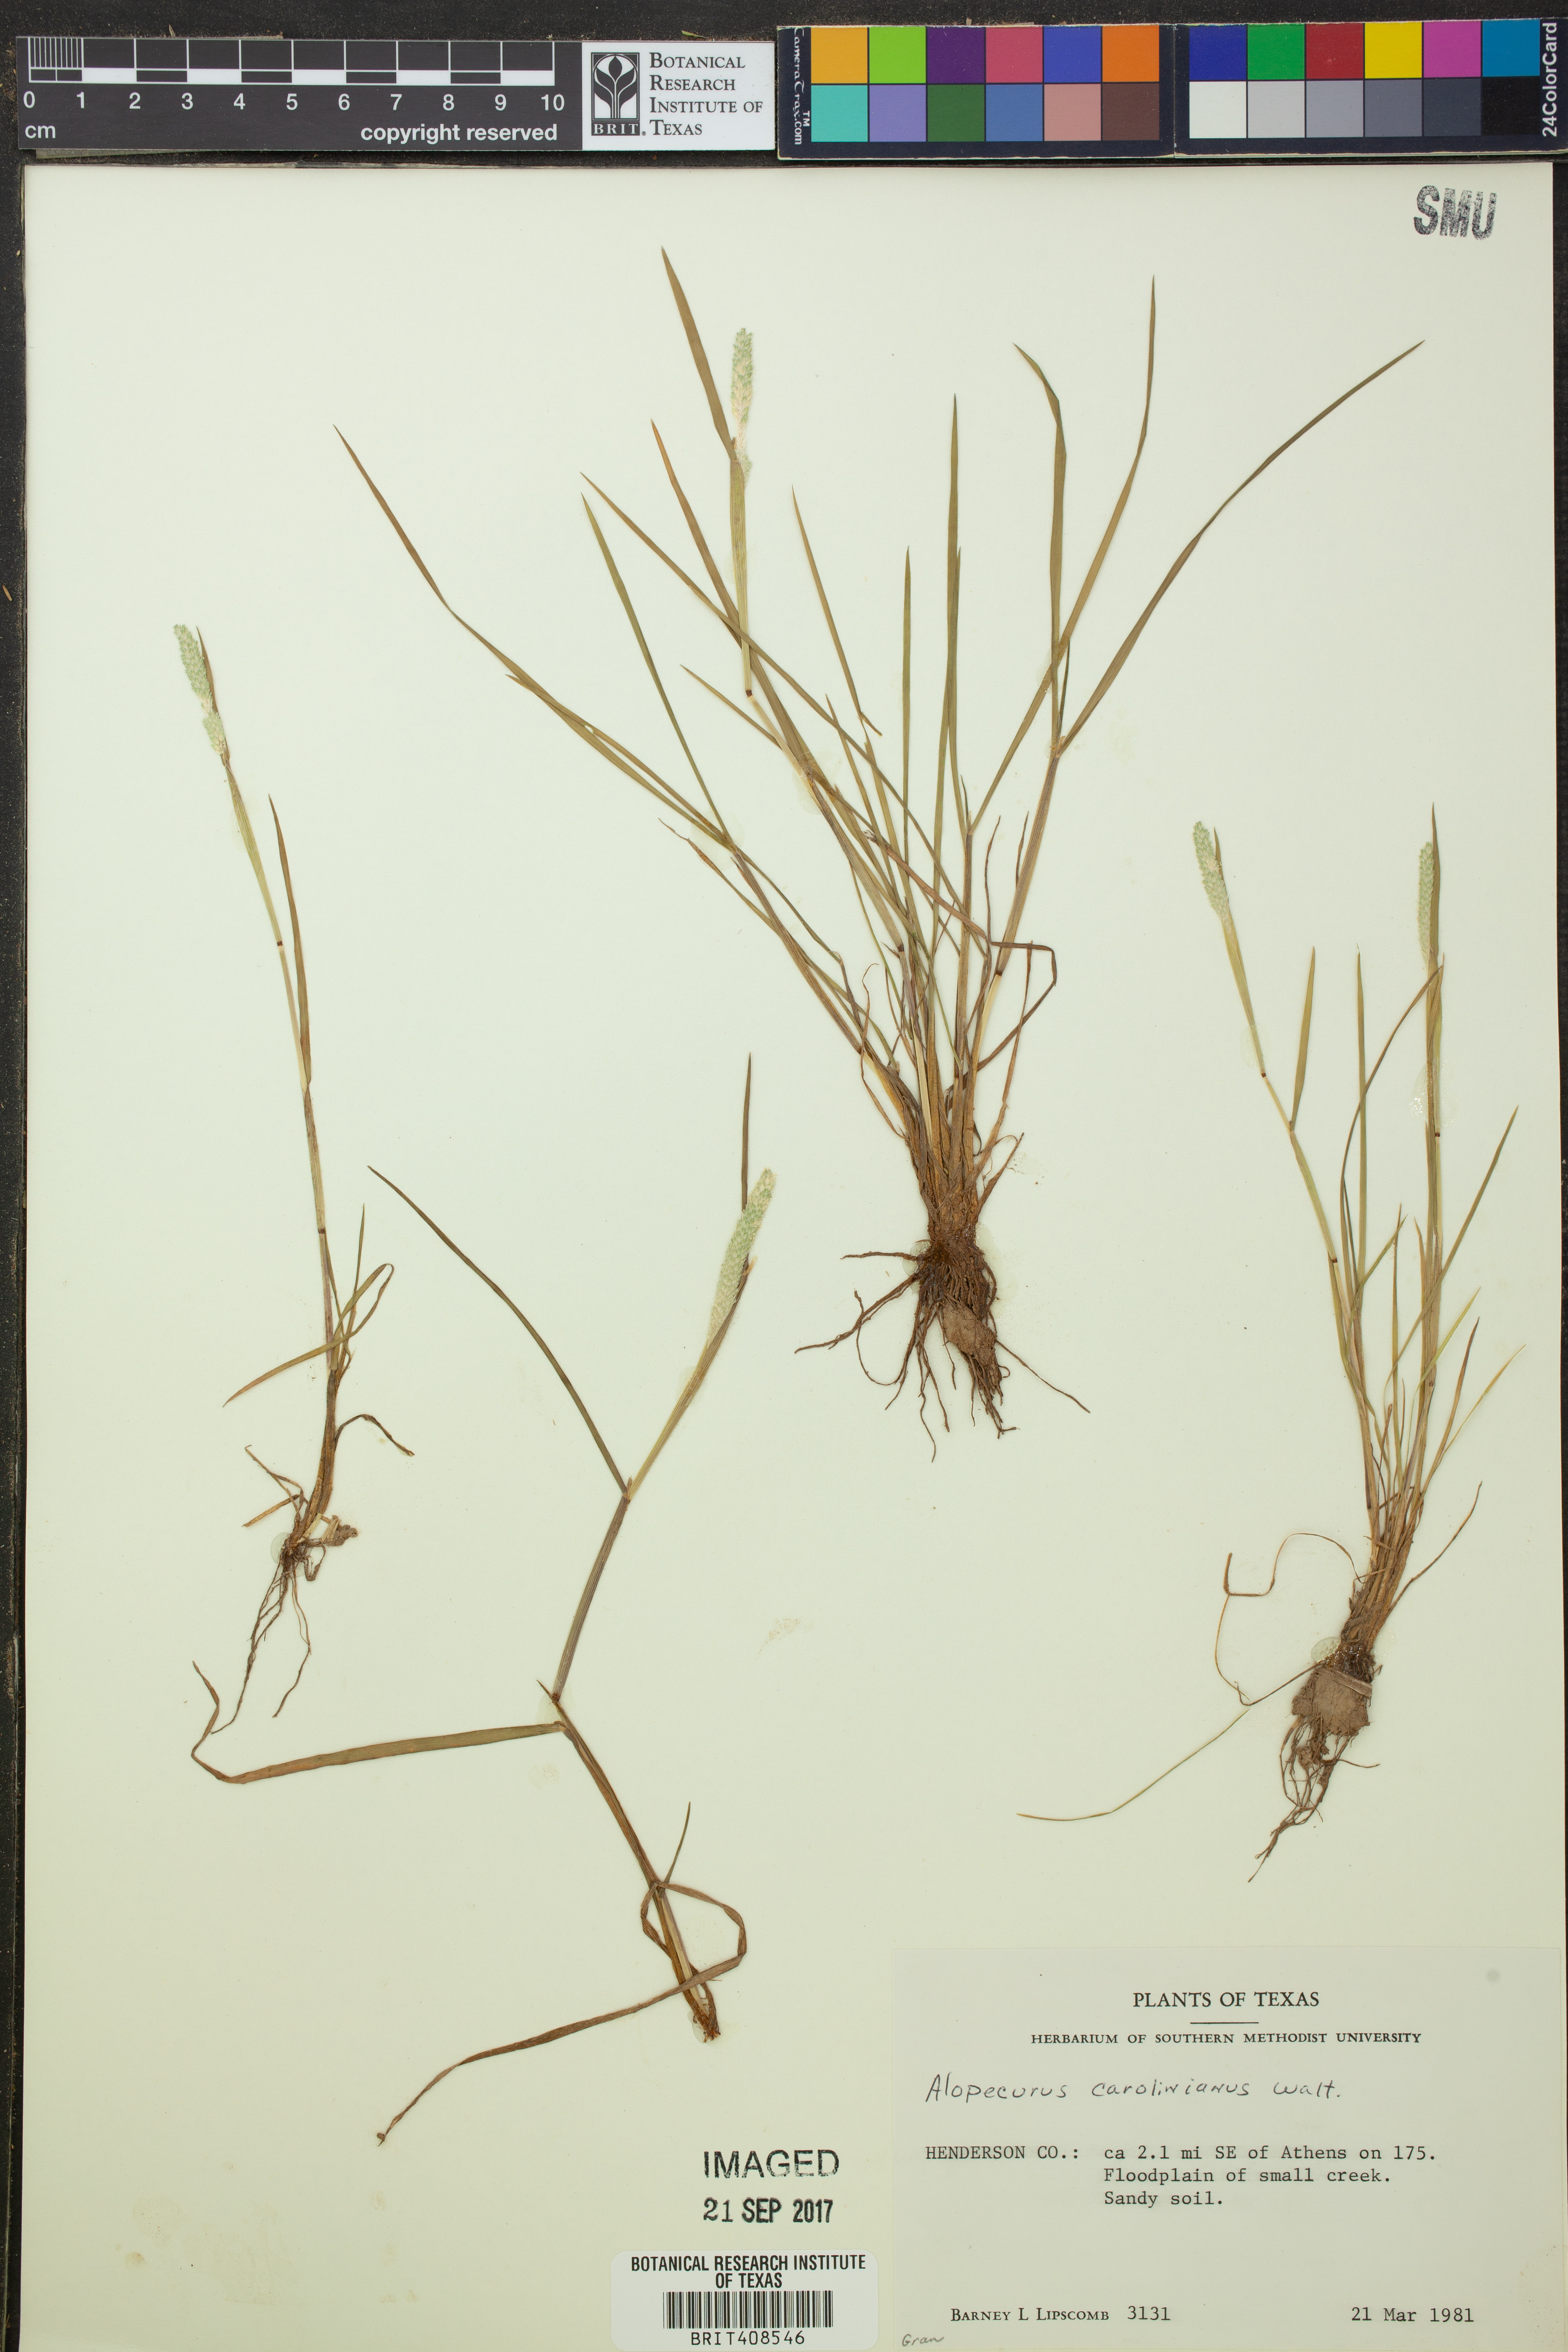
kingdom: Plantae
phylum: Tracheophyta
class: Liliopsida
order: Poales
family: Poaceae
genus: Alopecurus
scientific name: Alopecurus carolinianus
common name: Tufted foxtail
